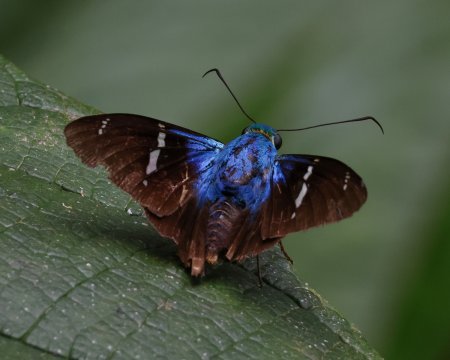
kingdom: Animalia
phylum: Arthropoda
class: Insecta
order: Lepidoptera
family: Hesperiidae
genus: Astraptes
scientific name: Astraptes fulgerator
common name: Two-barred Flasher
